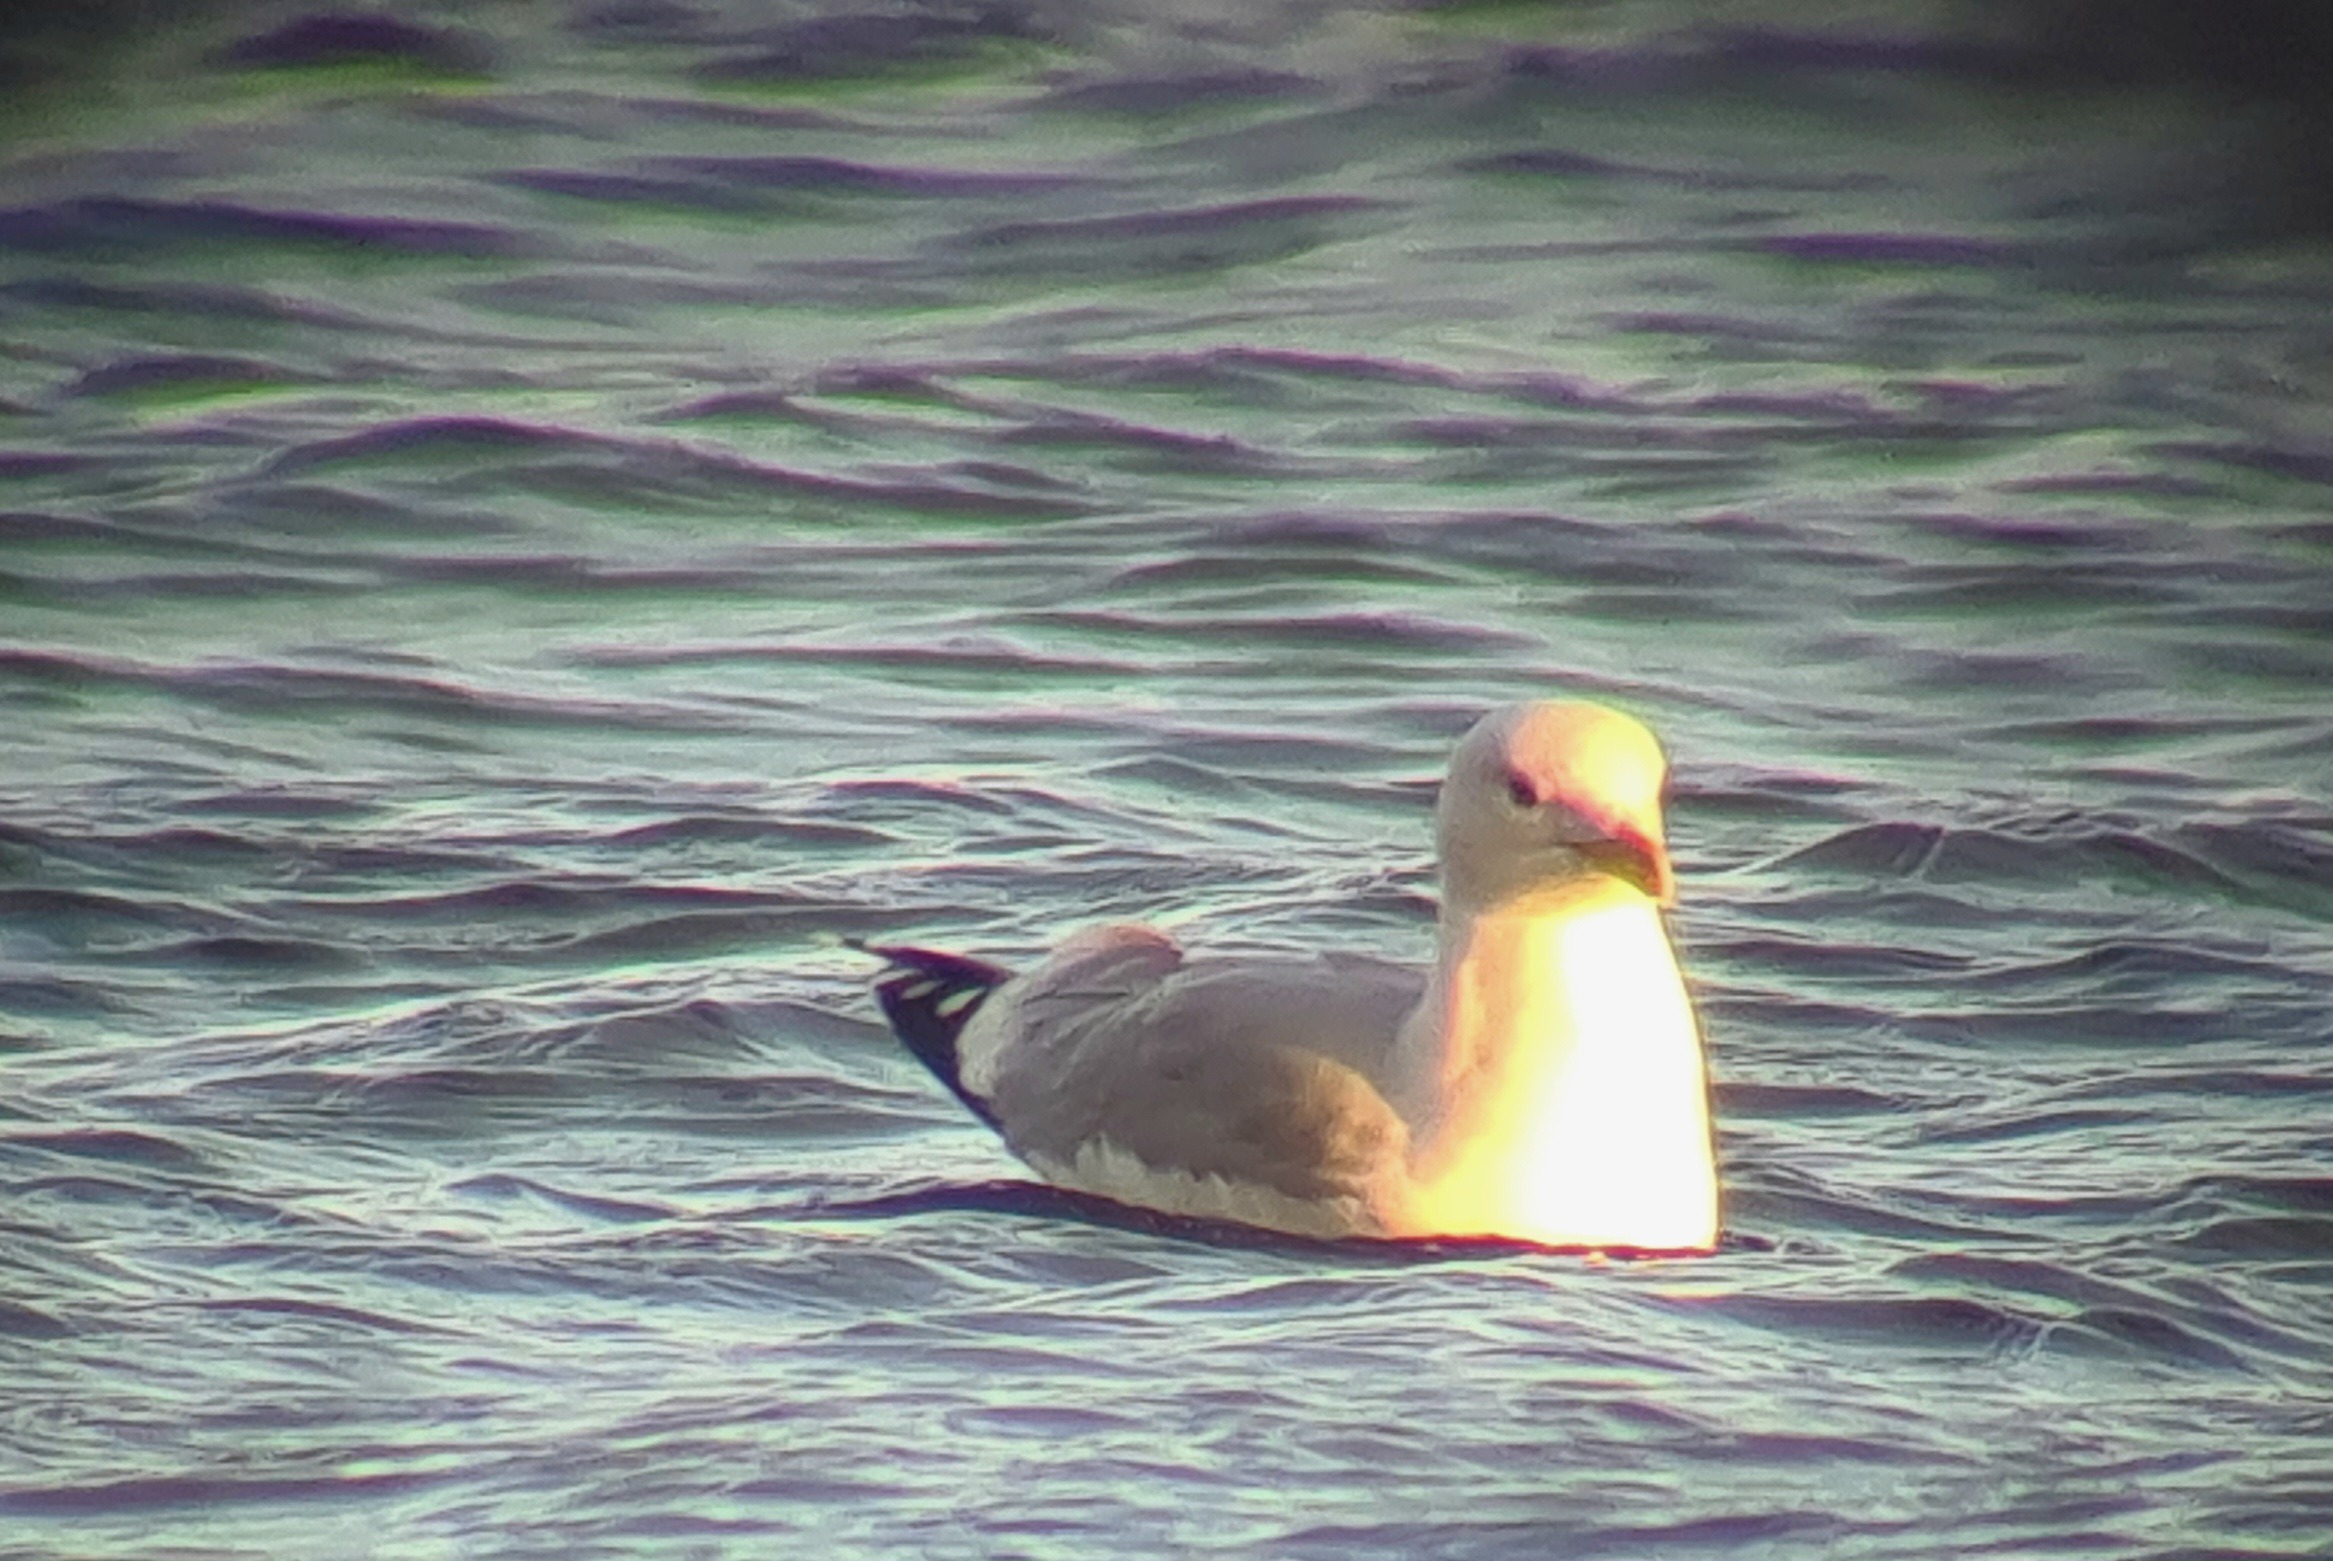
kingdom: Animalia
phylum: Chordata
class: Aves
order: Charadriiformes
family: Laridae
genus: Larus
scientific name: Larus argentatus
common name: Sølvmåge
